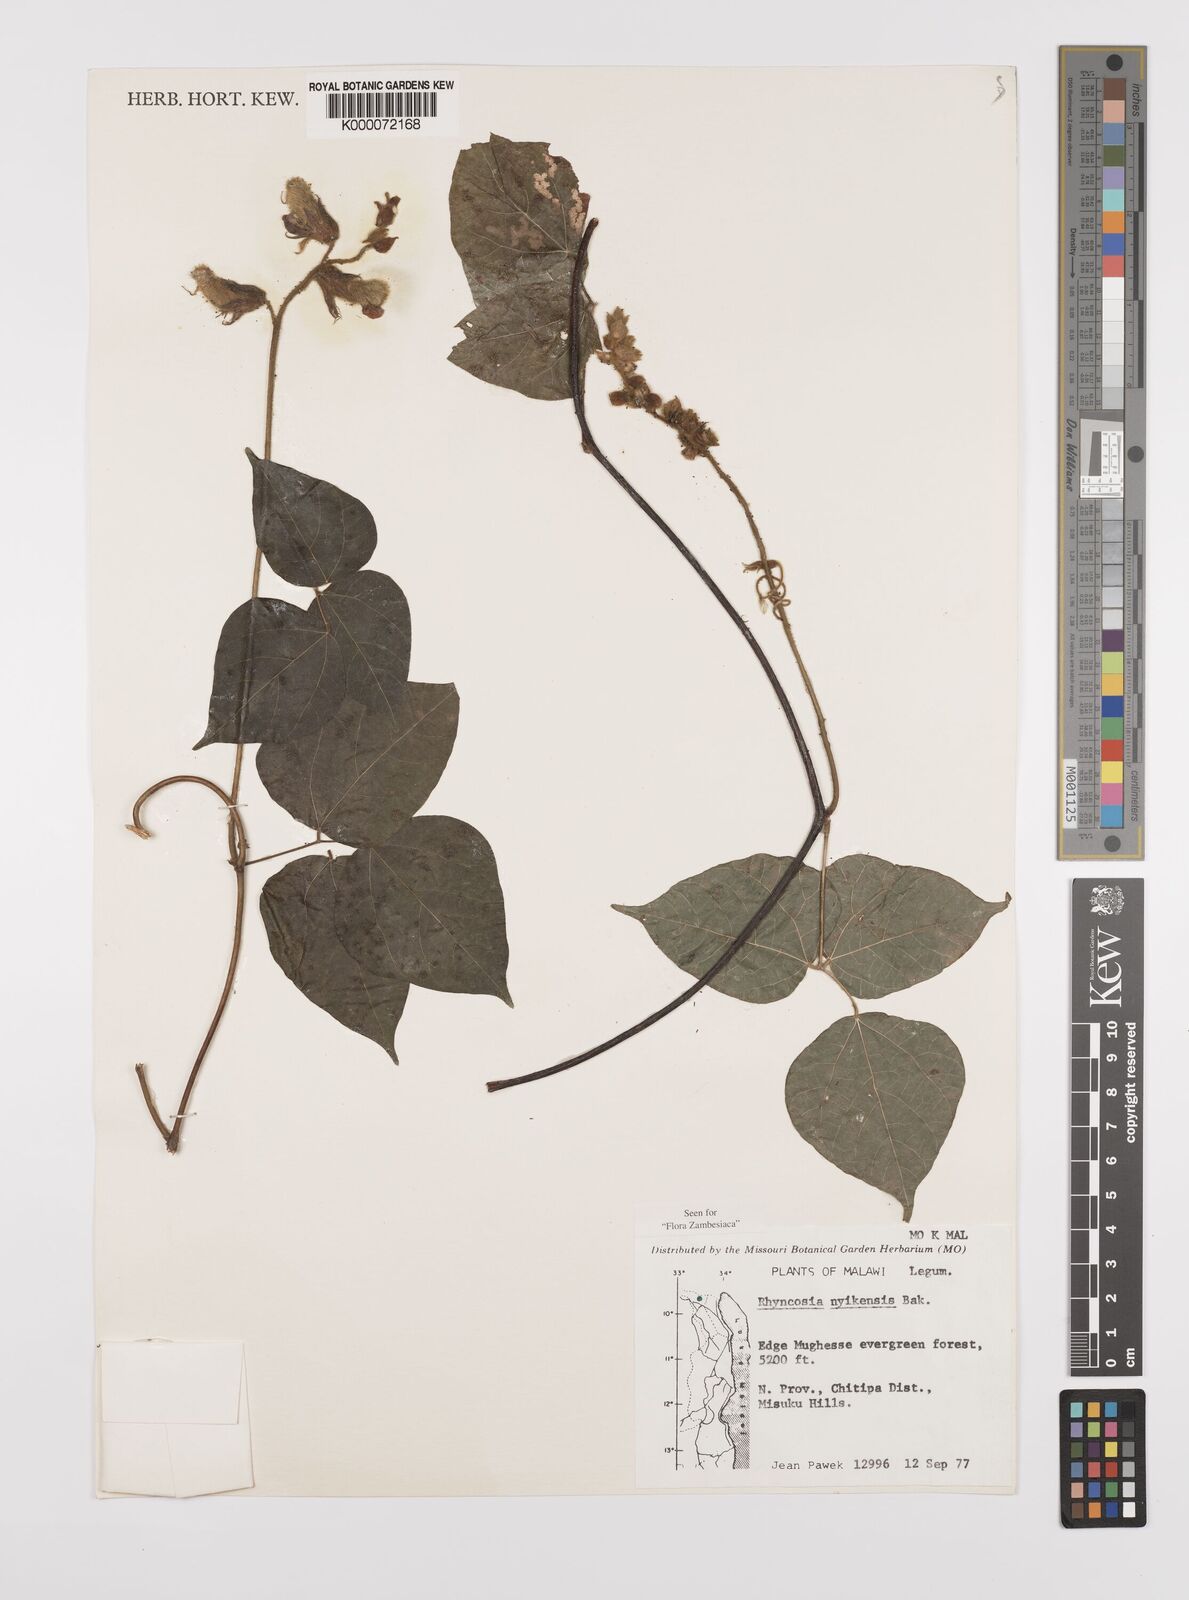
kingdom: Plantae
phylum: Tracheophyta
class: Magnoliopsida
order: Fabales
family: Fabaceae
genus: Rhynchosia
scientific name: Rhynchosia nyikensis
